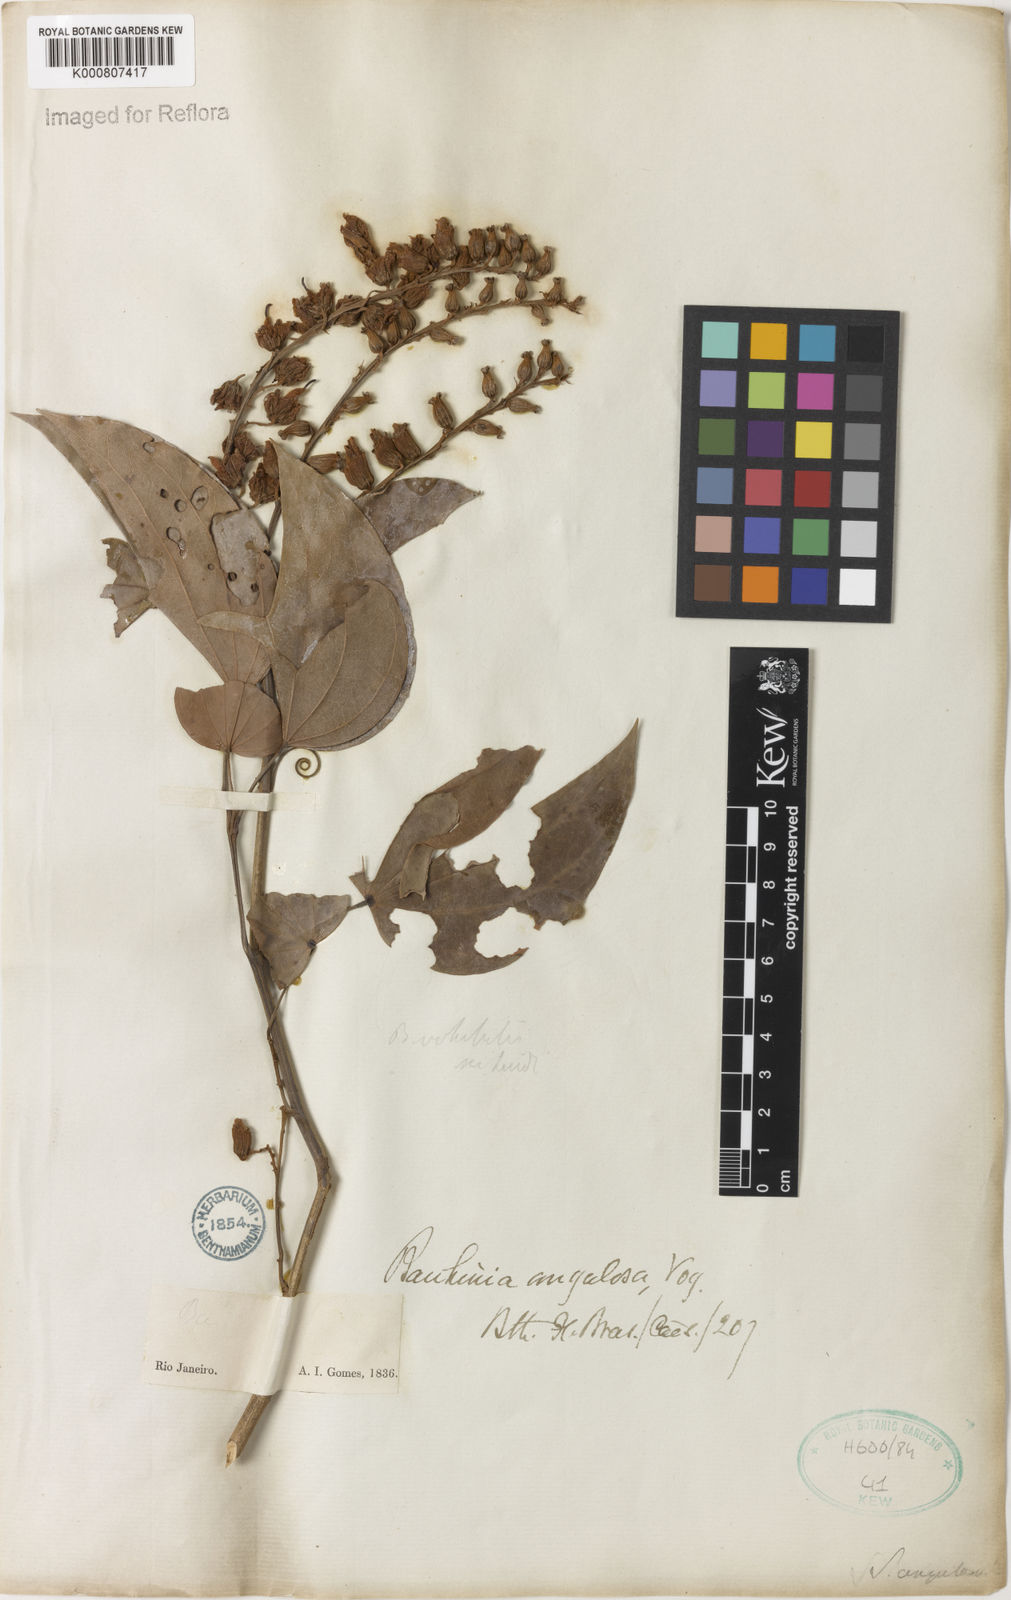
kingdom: Plantae
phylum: Tracheophyta
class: Magnoliopsida
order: Fabales
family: Fabaceae
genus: Bauhinia
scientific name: Bauhinia
